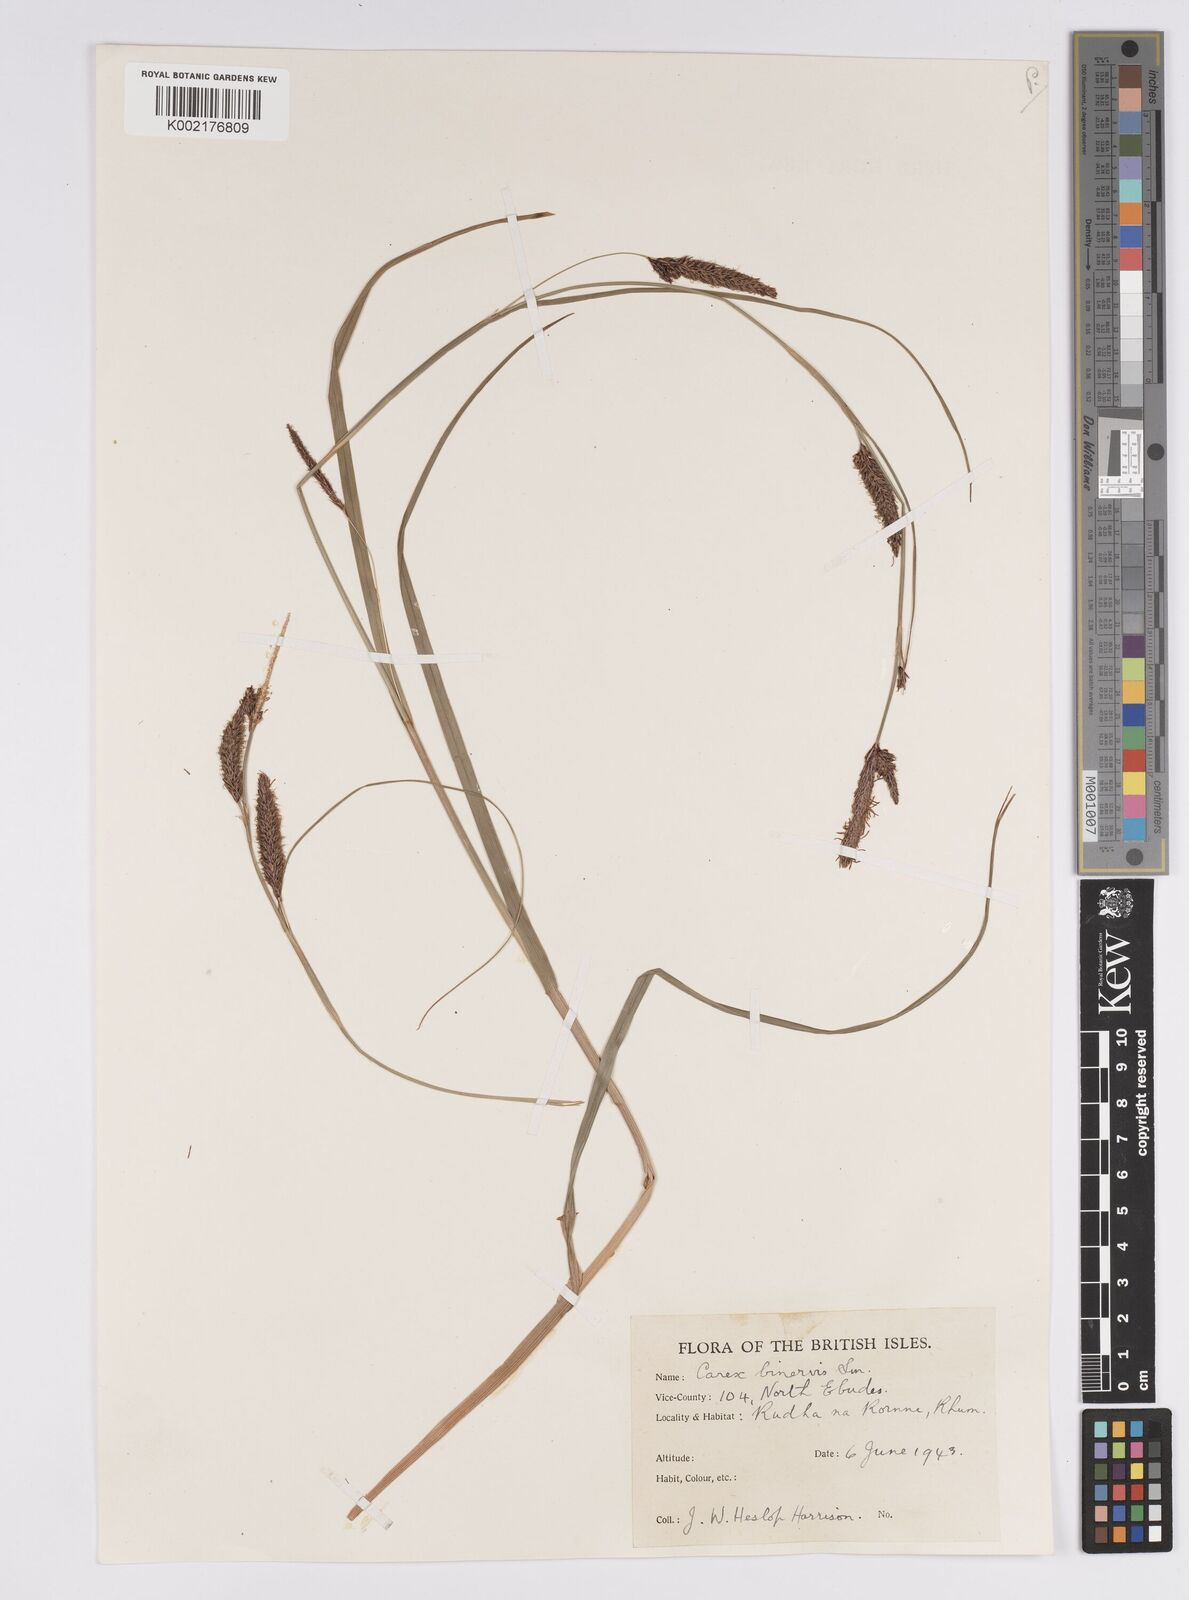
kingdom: Plantae
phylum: Tracheophyta
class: Liliopsida
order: Poales
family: Cyperaceae
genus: Carex
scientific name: Carex binervis
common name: Green-ribbed sedge
